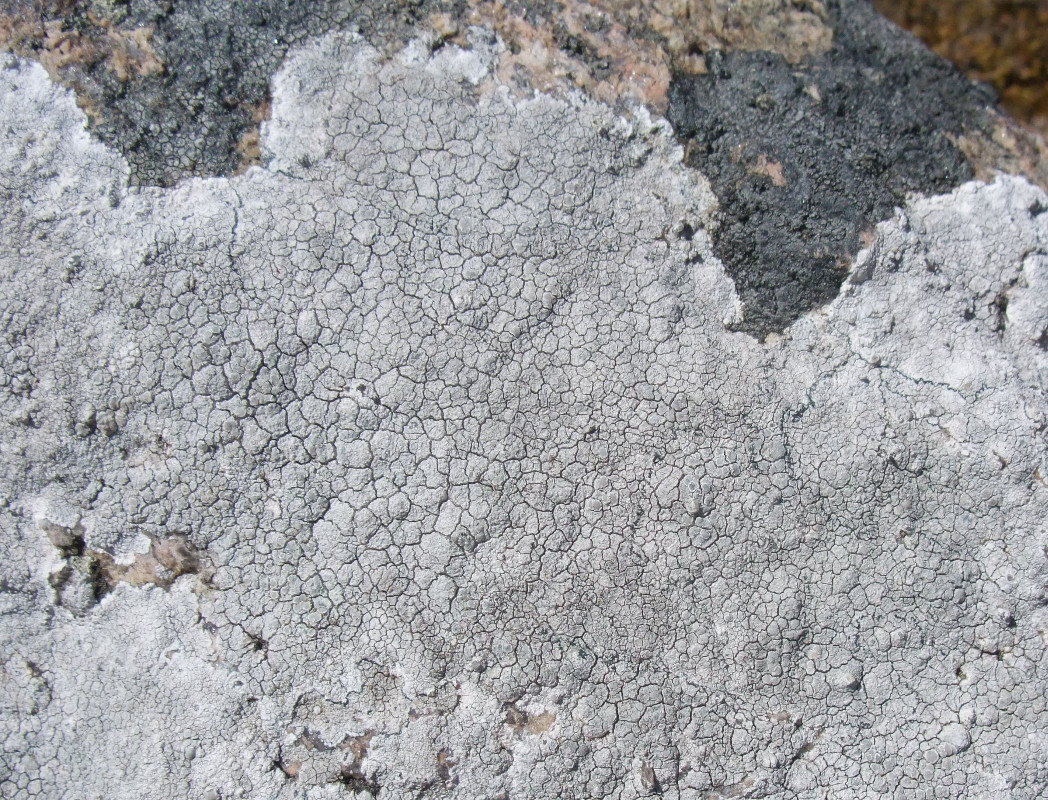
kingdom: Fungi
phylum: Ascomycota
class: Lecanoromycetes
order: Lecanorales
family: Lecanoraceae
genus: Glaucomaria
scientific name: Glaucomaria rupicola
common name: stengærde-kantskivelav
